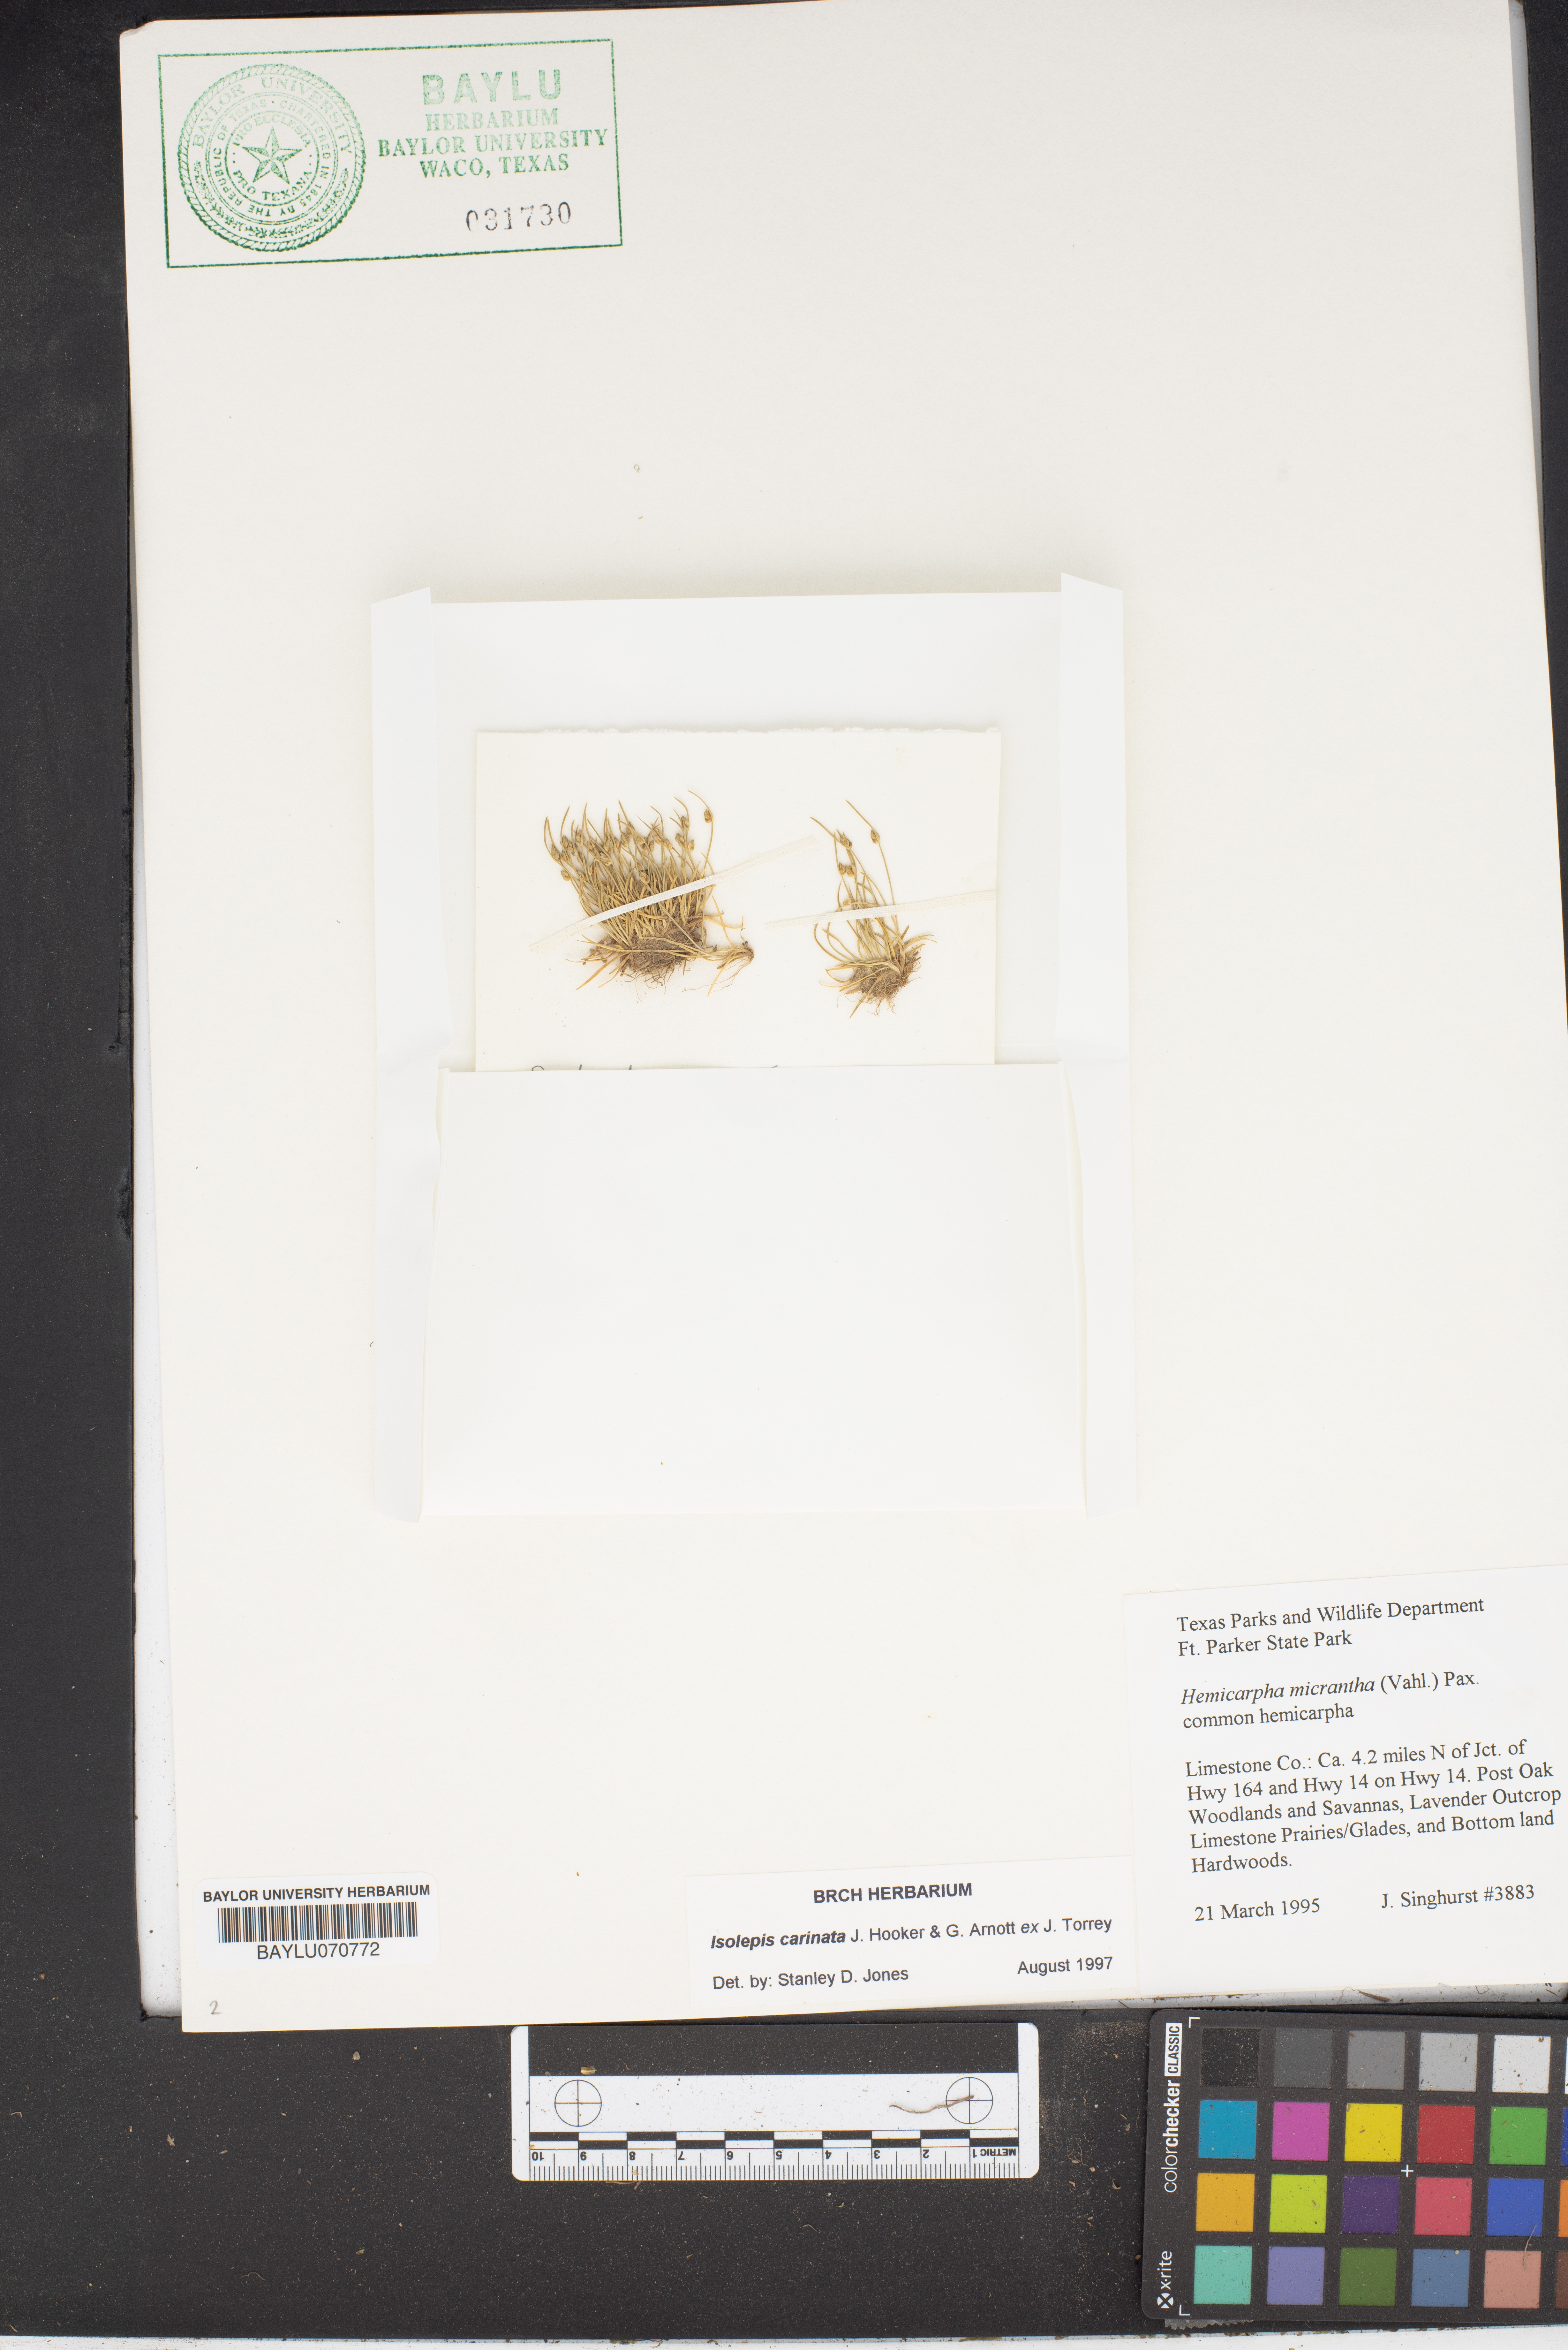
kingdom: Plantae
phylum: Tracheophyta
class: Liliopsida
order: Poales
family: Cyperaceae
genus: Cyperus
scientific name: Cyperus subsquarrosus
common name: Dwarf bulrush
